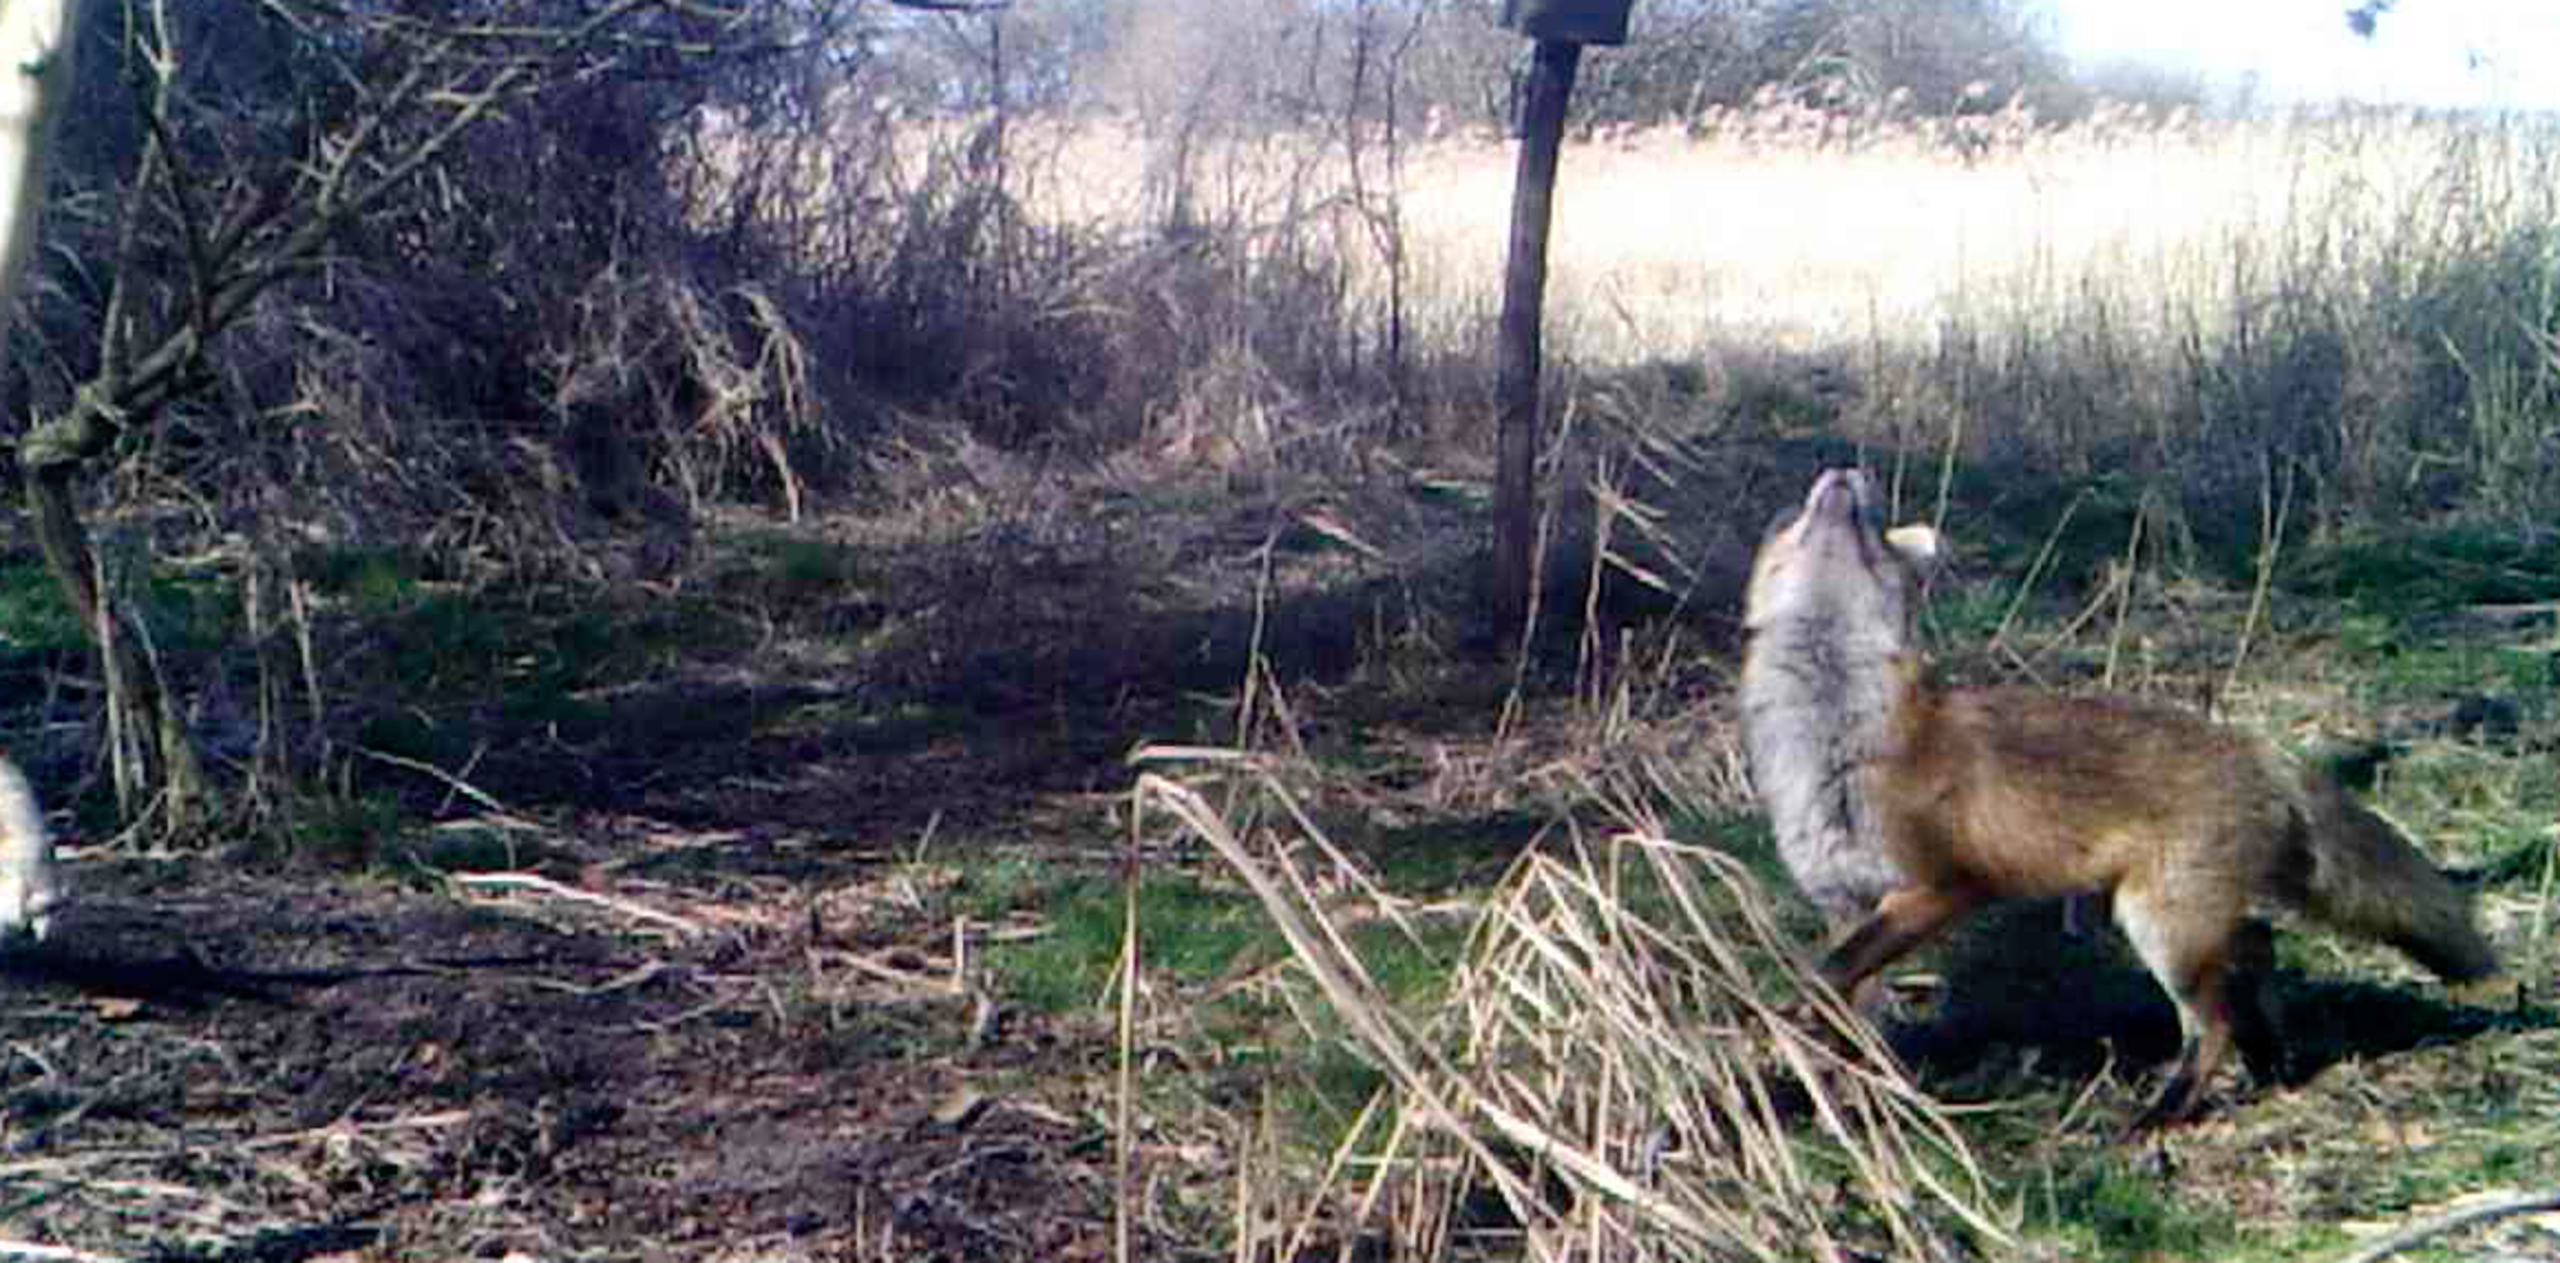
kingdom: Animalia
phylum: Chordata
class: Mammalia
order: Carnivora
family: Canidae
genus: Vulpes
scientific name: Vulpes vulpes
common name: Ræv
